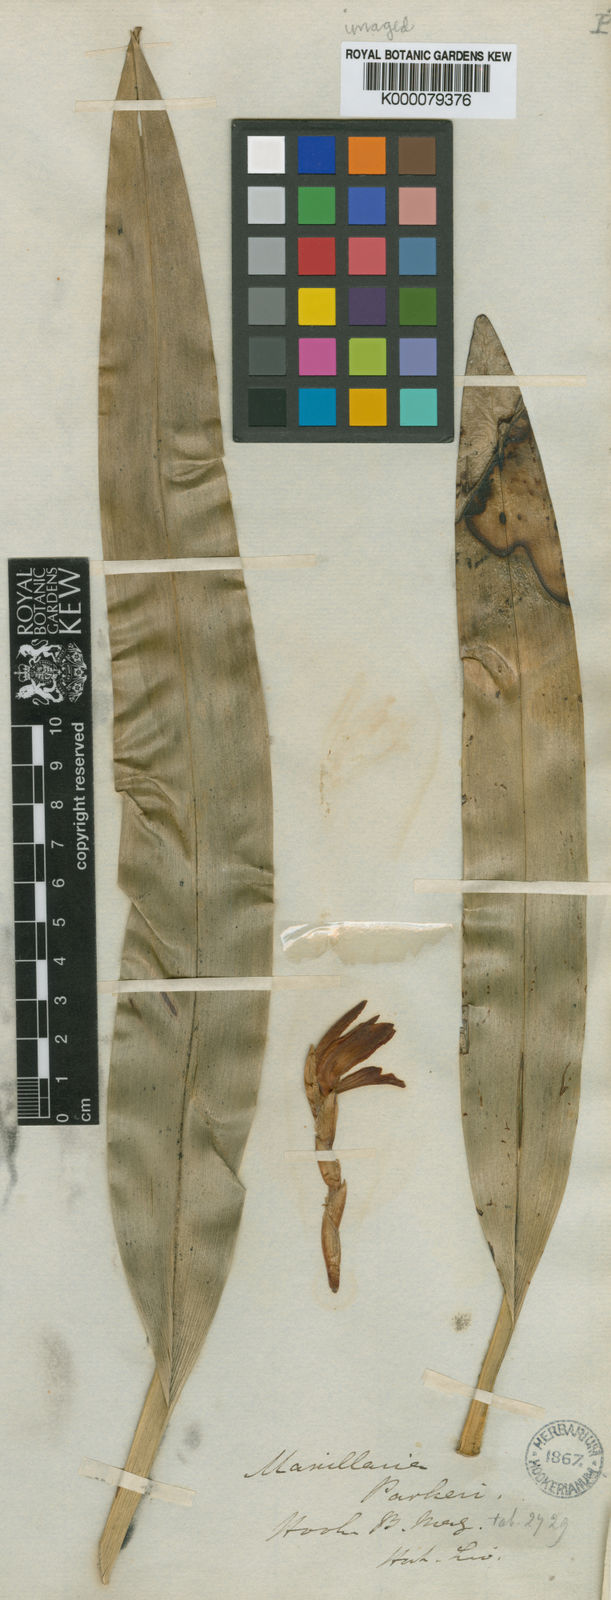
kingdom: Plantae
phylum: Tracheophyta
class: Liliopsida
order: Asparagales
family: Orchidaceae
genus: Maxillaria
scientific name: Maxillaria parkeri
